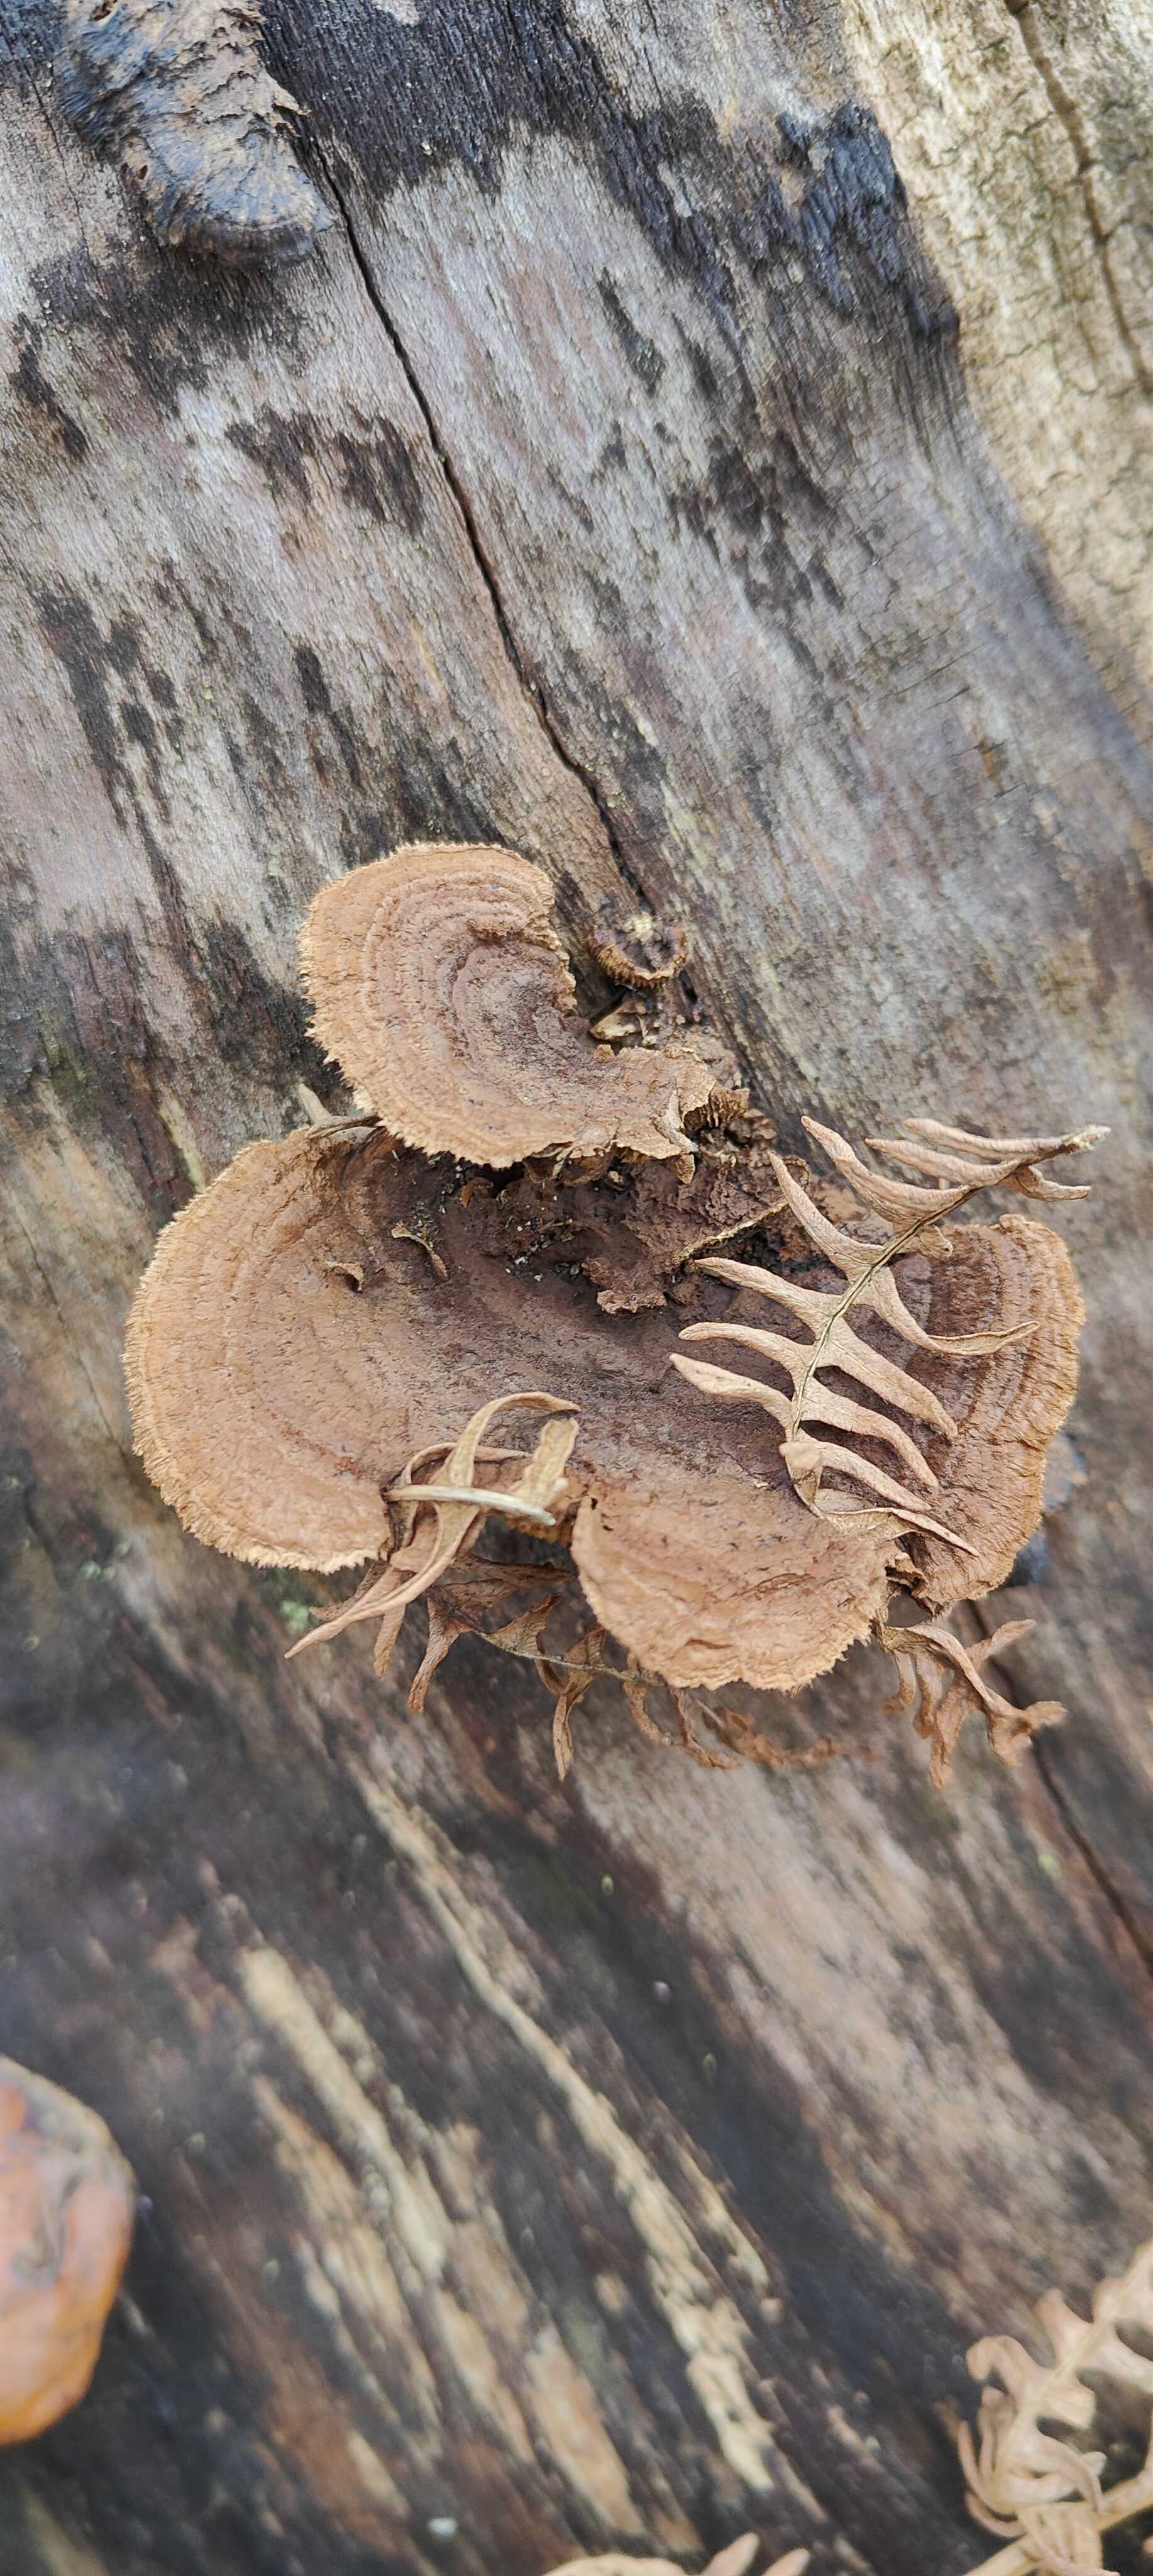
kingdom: Fungi
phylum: Basidiomycota
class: Agaricomycetes
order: Gloeophyllales
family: Gloeophyllaceae
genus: Gloeophyllum
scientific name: Gloeophyllum sepiarium
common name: fyrre-korkhat
